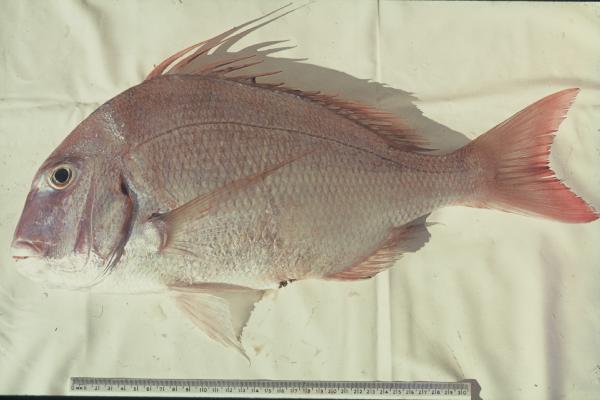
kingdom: Animalia
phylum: Chordata
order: Perciformes
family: Sparidae
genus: Cheimerius
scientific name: Cheimerius nufar
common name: Soldier
